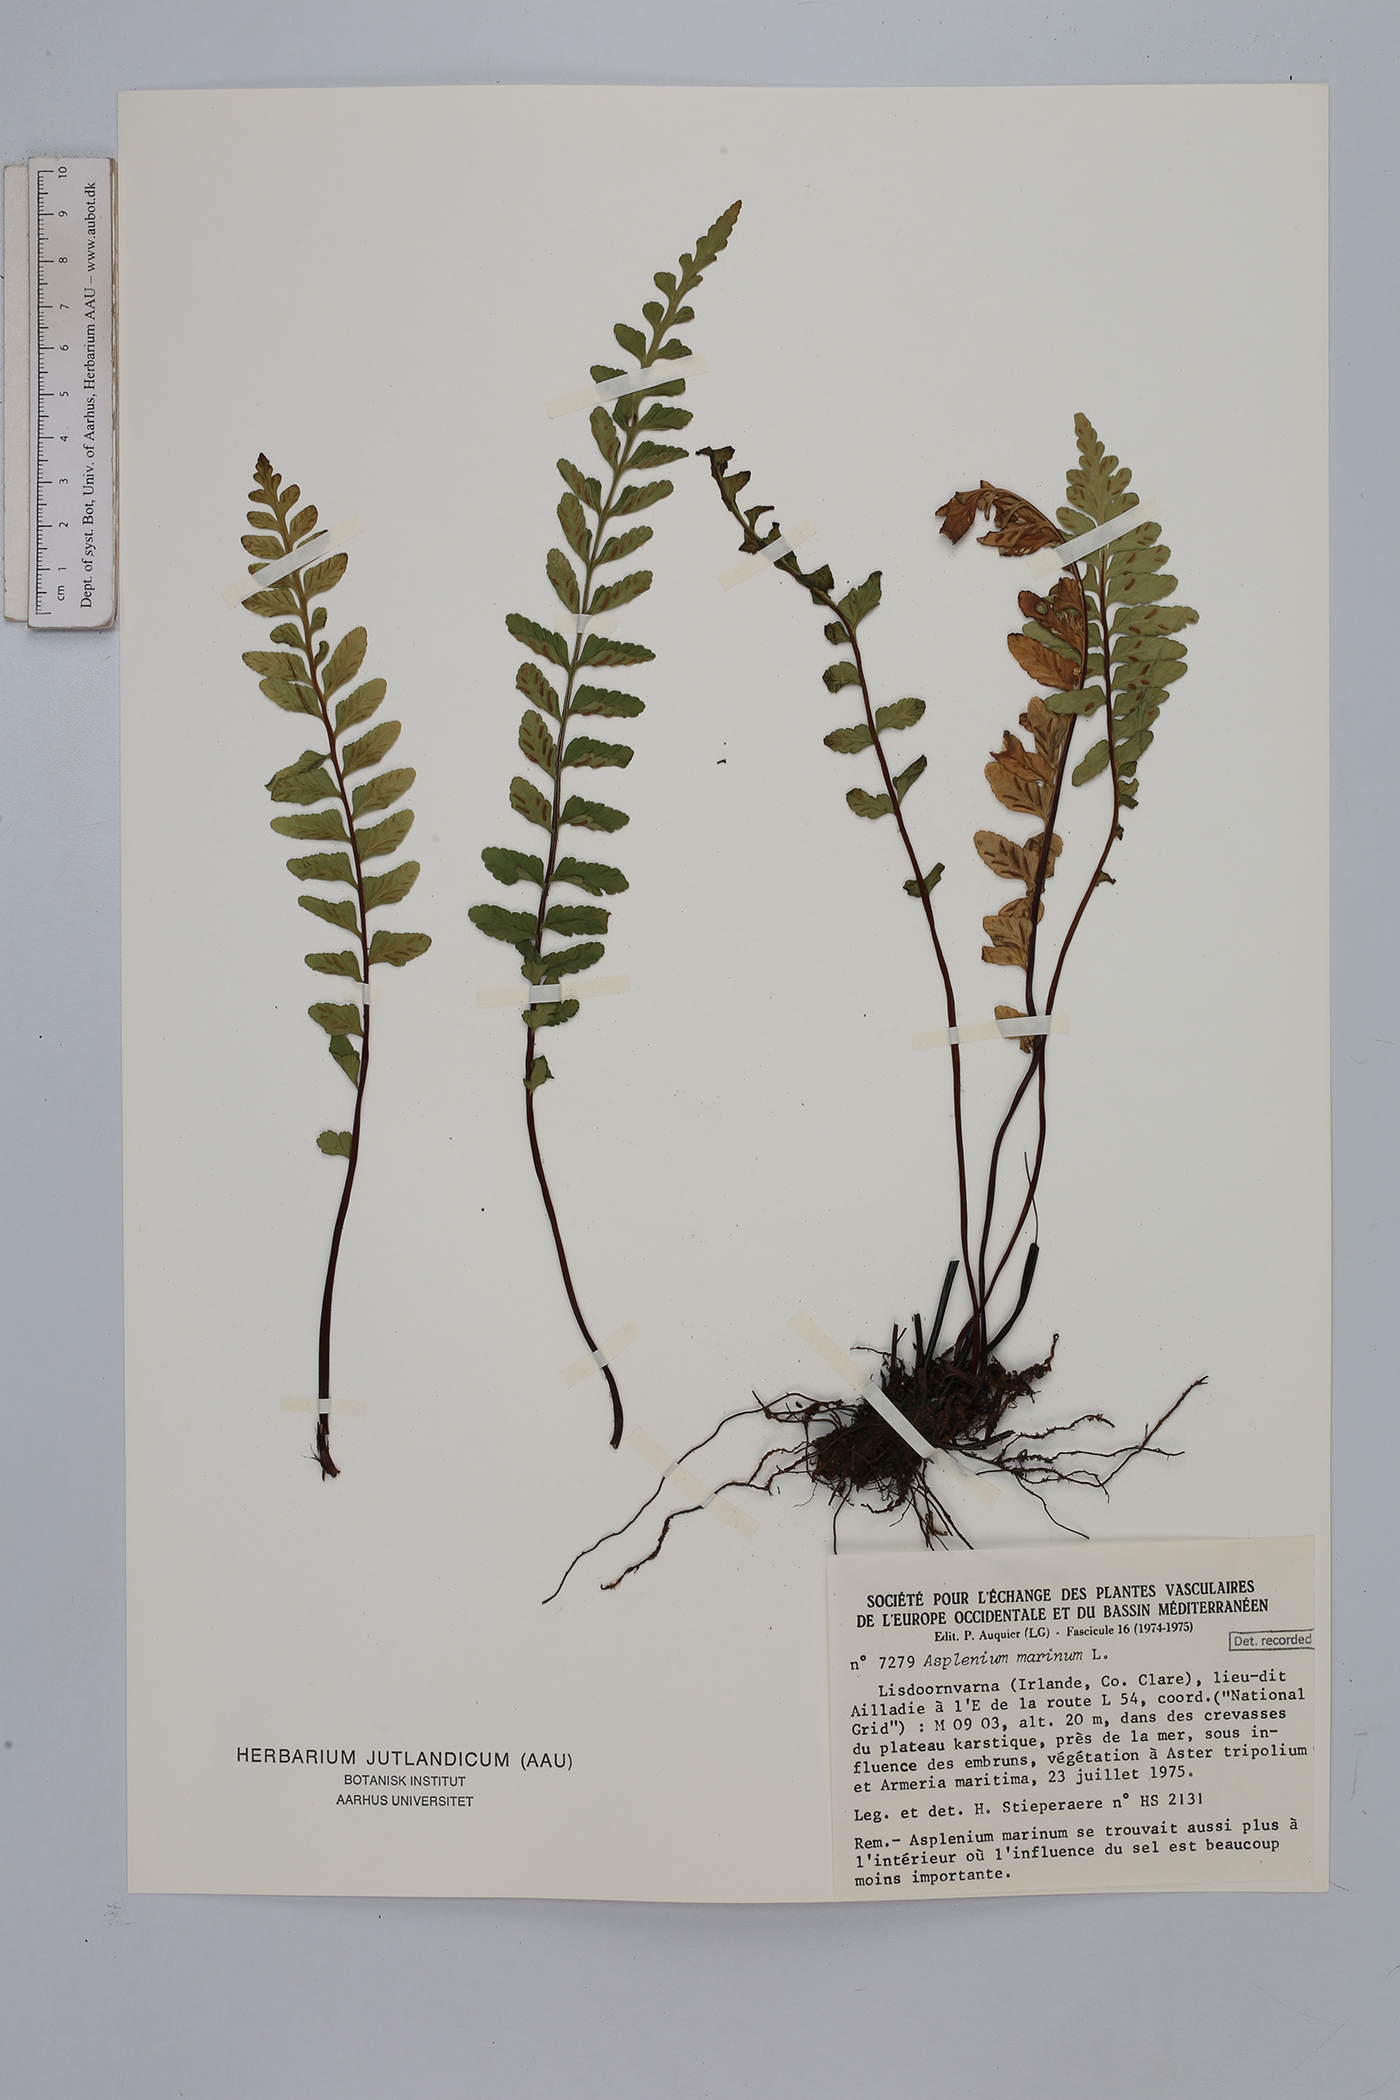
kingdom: Plantae
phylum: Tracheophyta
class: Polypodiopsida
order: Polypodiales
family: Aspleniaceae
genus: Asplenium
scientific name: Asplenium marinum
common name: Sea spleenwort
